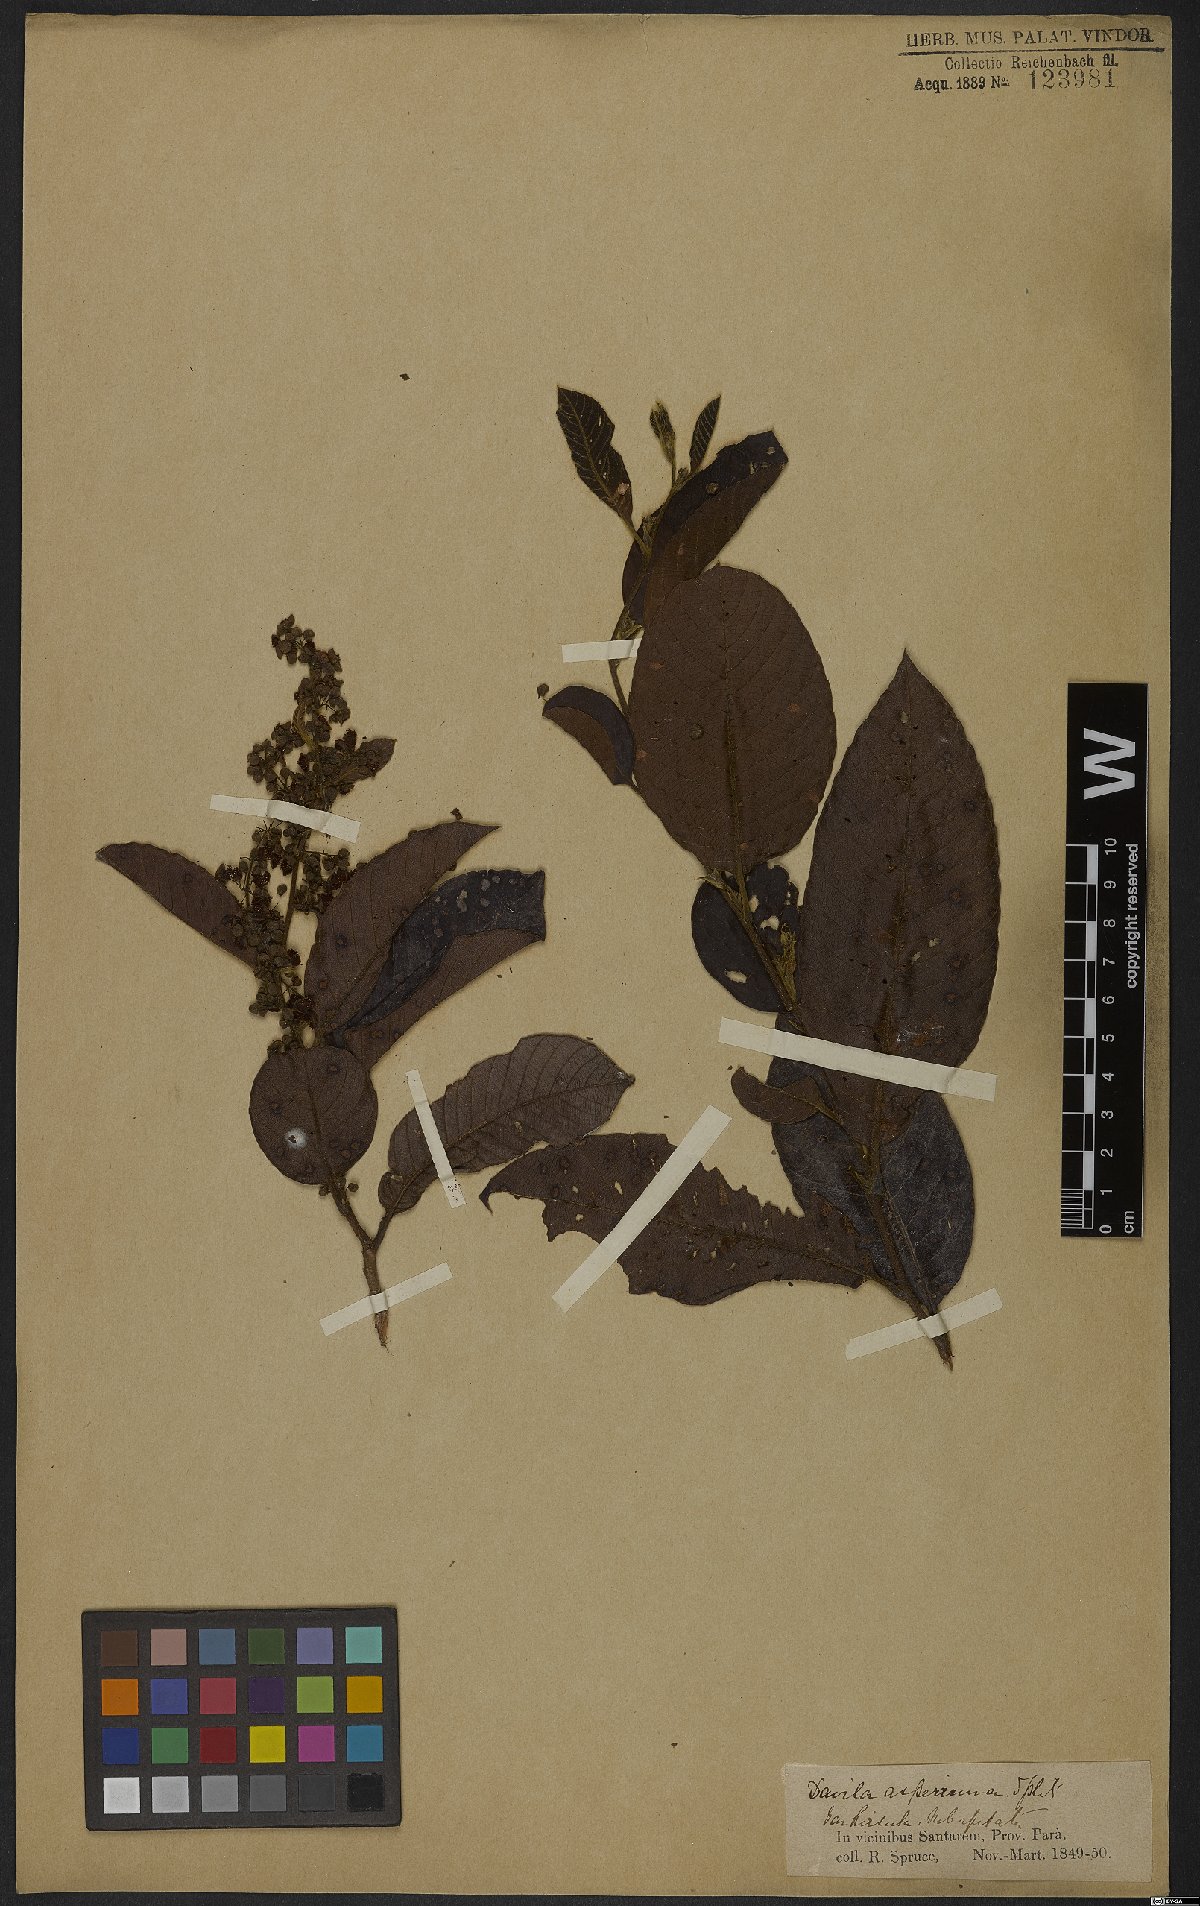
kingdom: Plantae
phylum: Tracheophyta
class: Magnoliopsida
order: Dilleniales
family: Dilleniaceae
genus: Davilla
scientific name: Davilla kunthii
